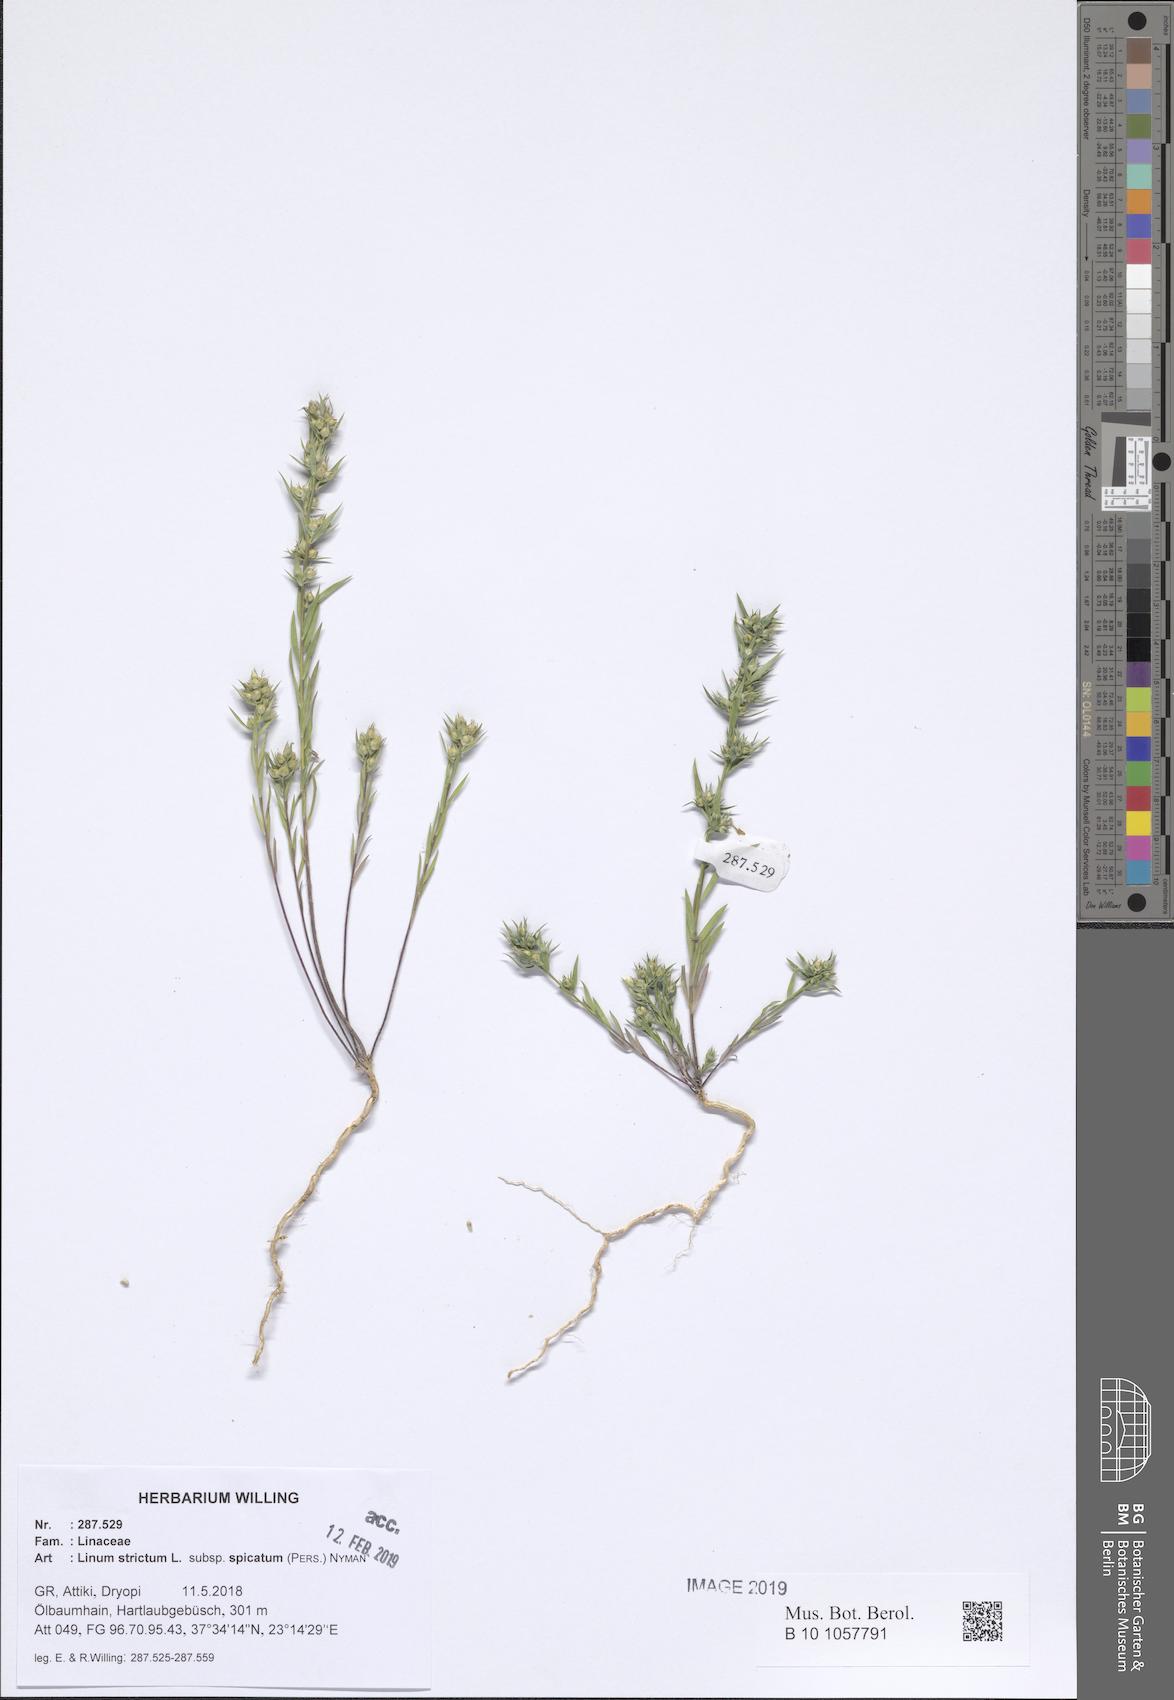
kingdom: Plantae
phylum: Tracheophyta
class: Magnoliopsida
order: Malpighiales
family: Linaceae
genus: Linum
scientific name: Linum strictum
